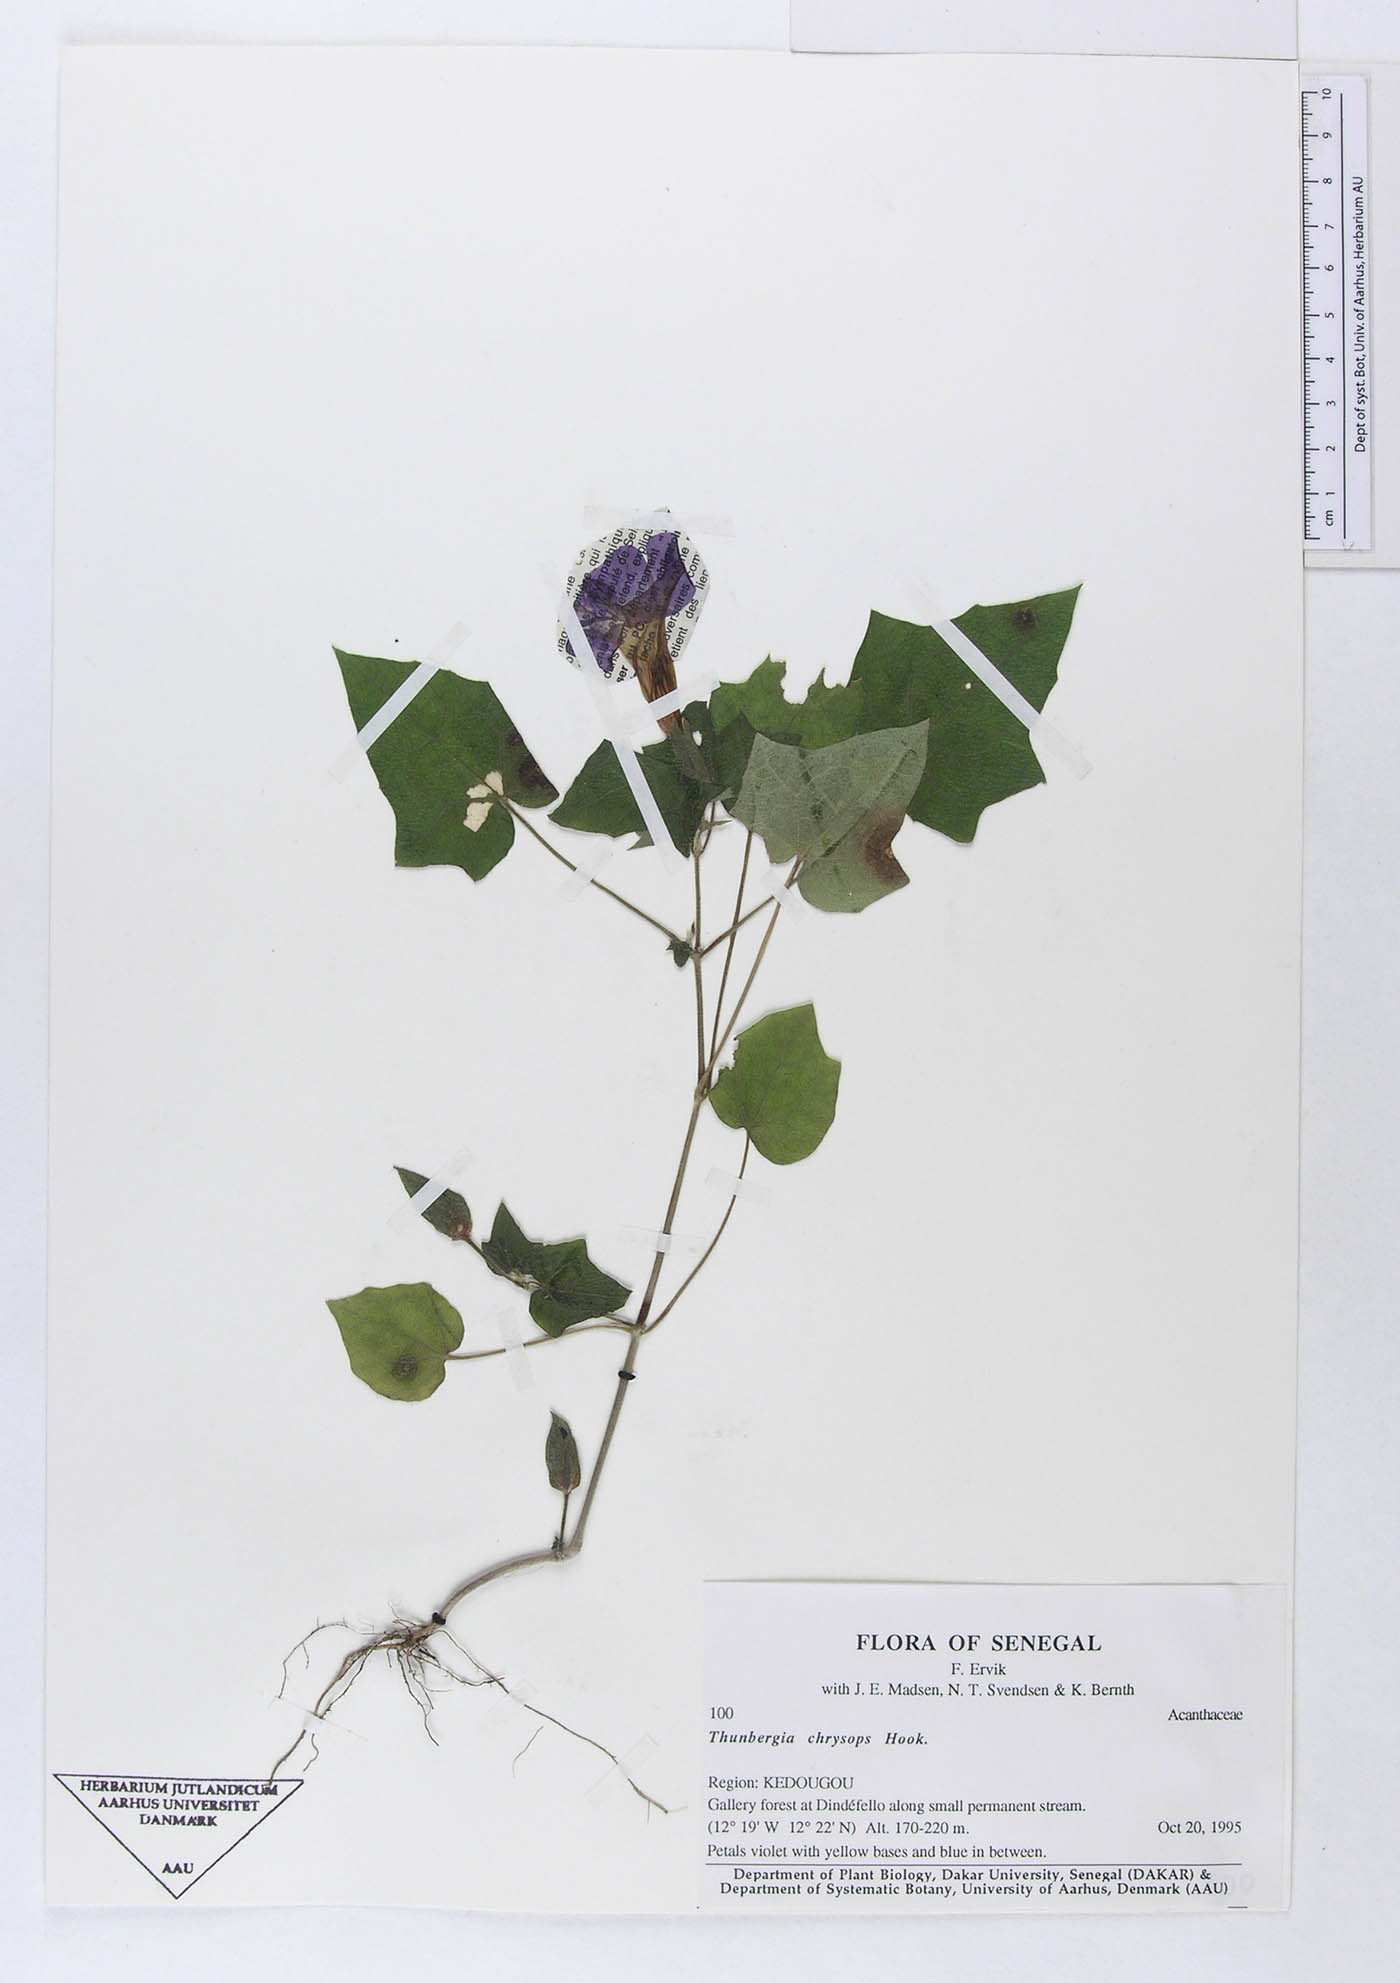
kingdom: Plantae
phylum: Tracheophyta
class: Magnoliopsida
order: Lamiales
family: Acanthaceae
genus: Thunbergia
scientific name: Thunbergia chrysops
